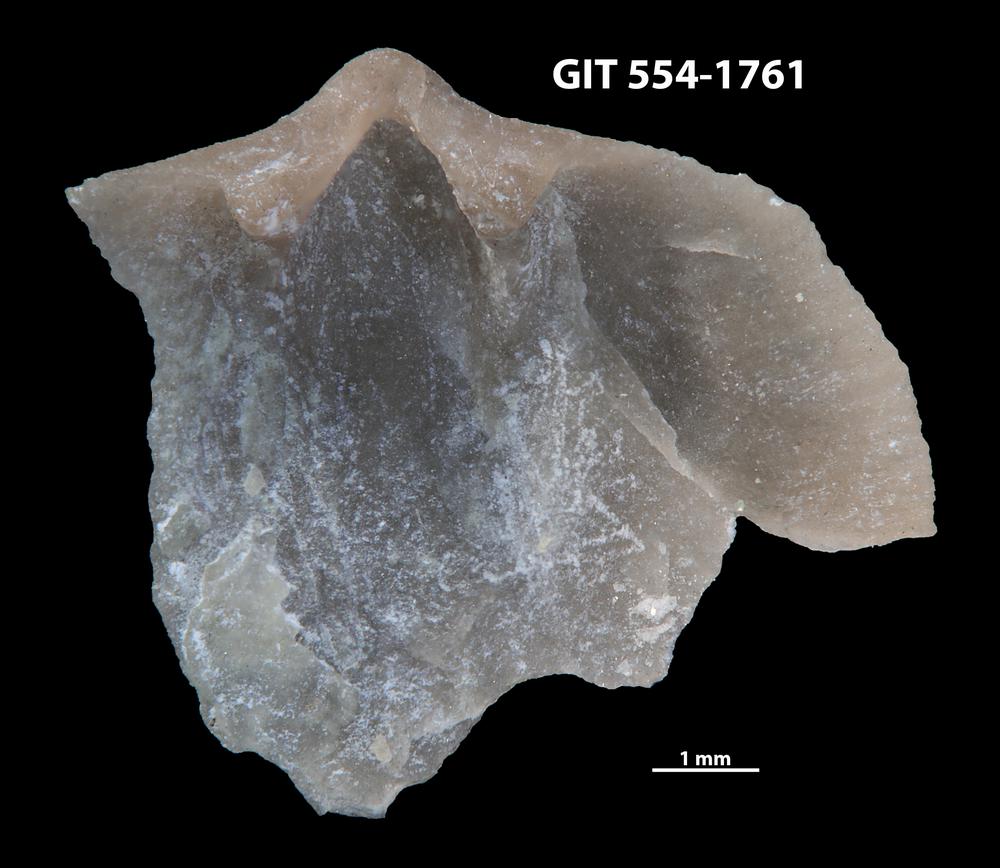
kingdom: Animalia
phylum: Brachiopoda
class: Rhynchonellata
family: Dalmanellidae
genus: Dalmanella
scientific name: Dalmanella cyclica
